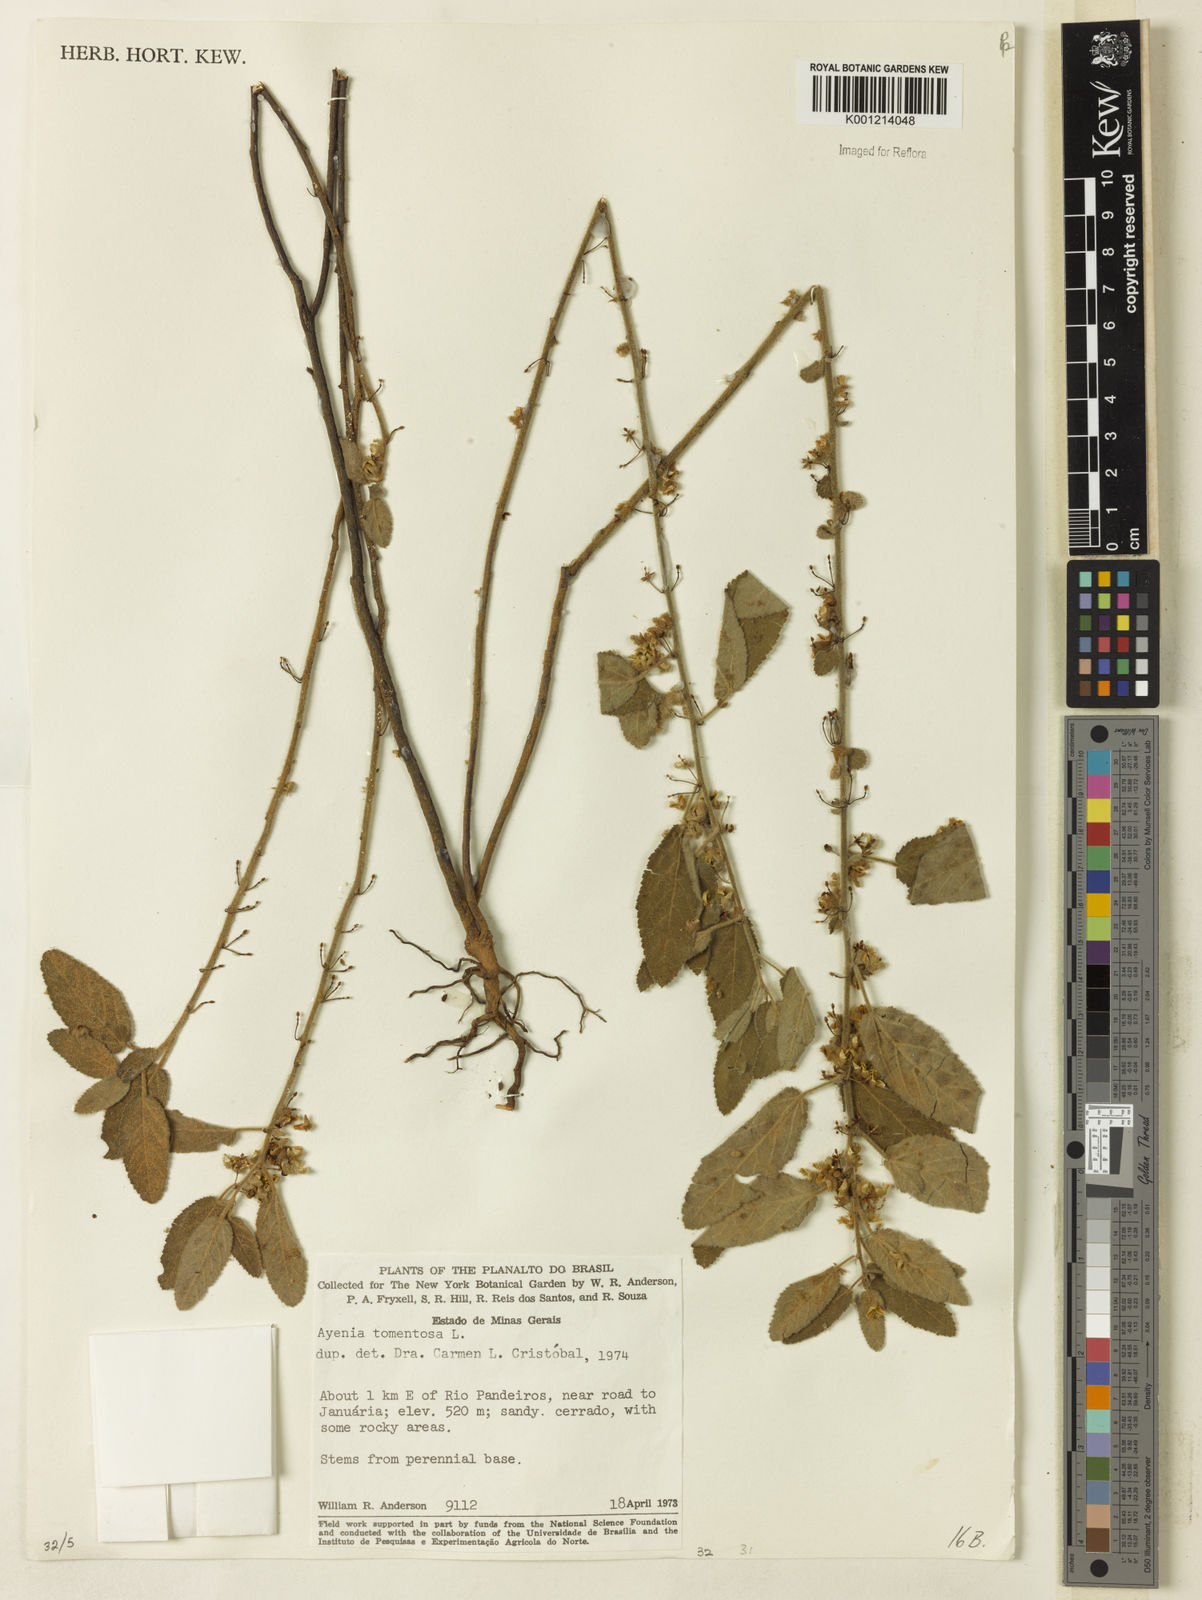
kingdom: Plantae
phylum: Tracheophyta
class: Magnoliopsida
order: Malvales
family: Malvaceae
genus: Ayenia
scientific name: Ayenia tomentosa
